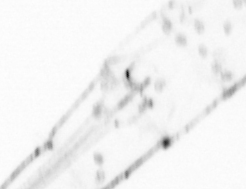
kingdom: Animalia
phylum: Chaetognatha
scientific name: Chaetognatha
